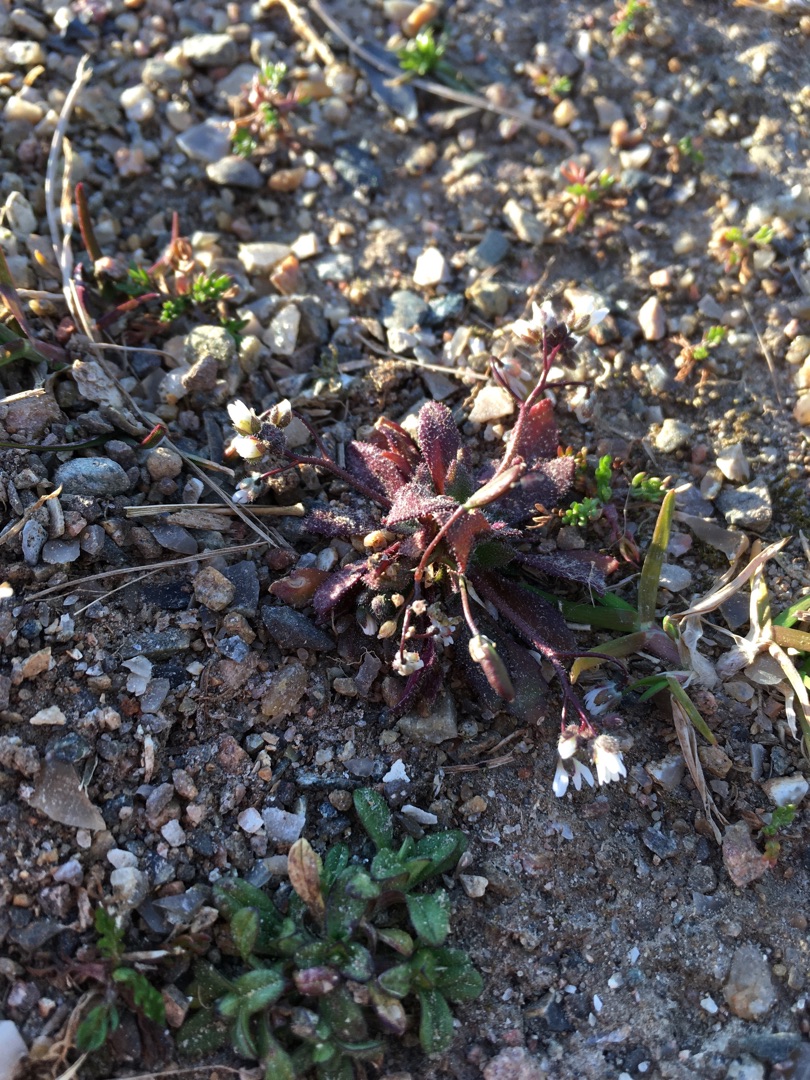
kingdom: Plantae
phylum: Tracheophyta
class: Magnoliopsida
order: Brassicales
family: Brassicaceae
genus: Draba
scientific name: Draba verna
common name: Vår-gæslingeblomst
